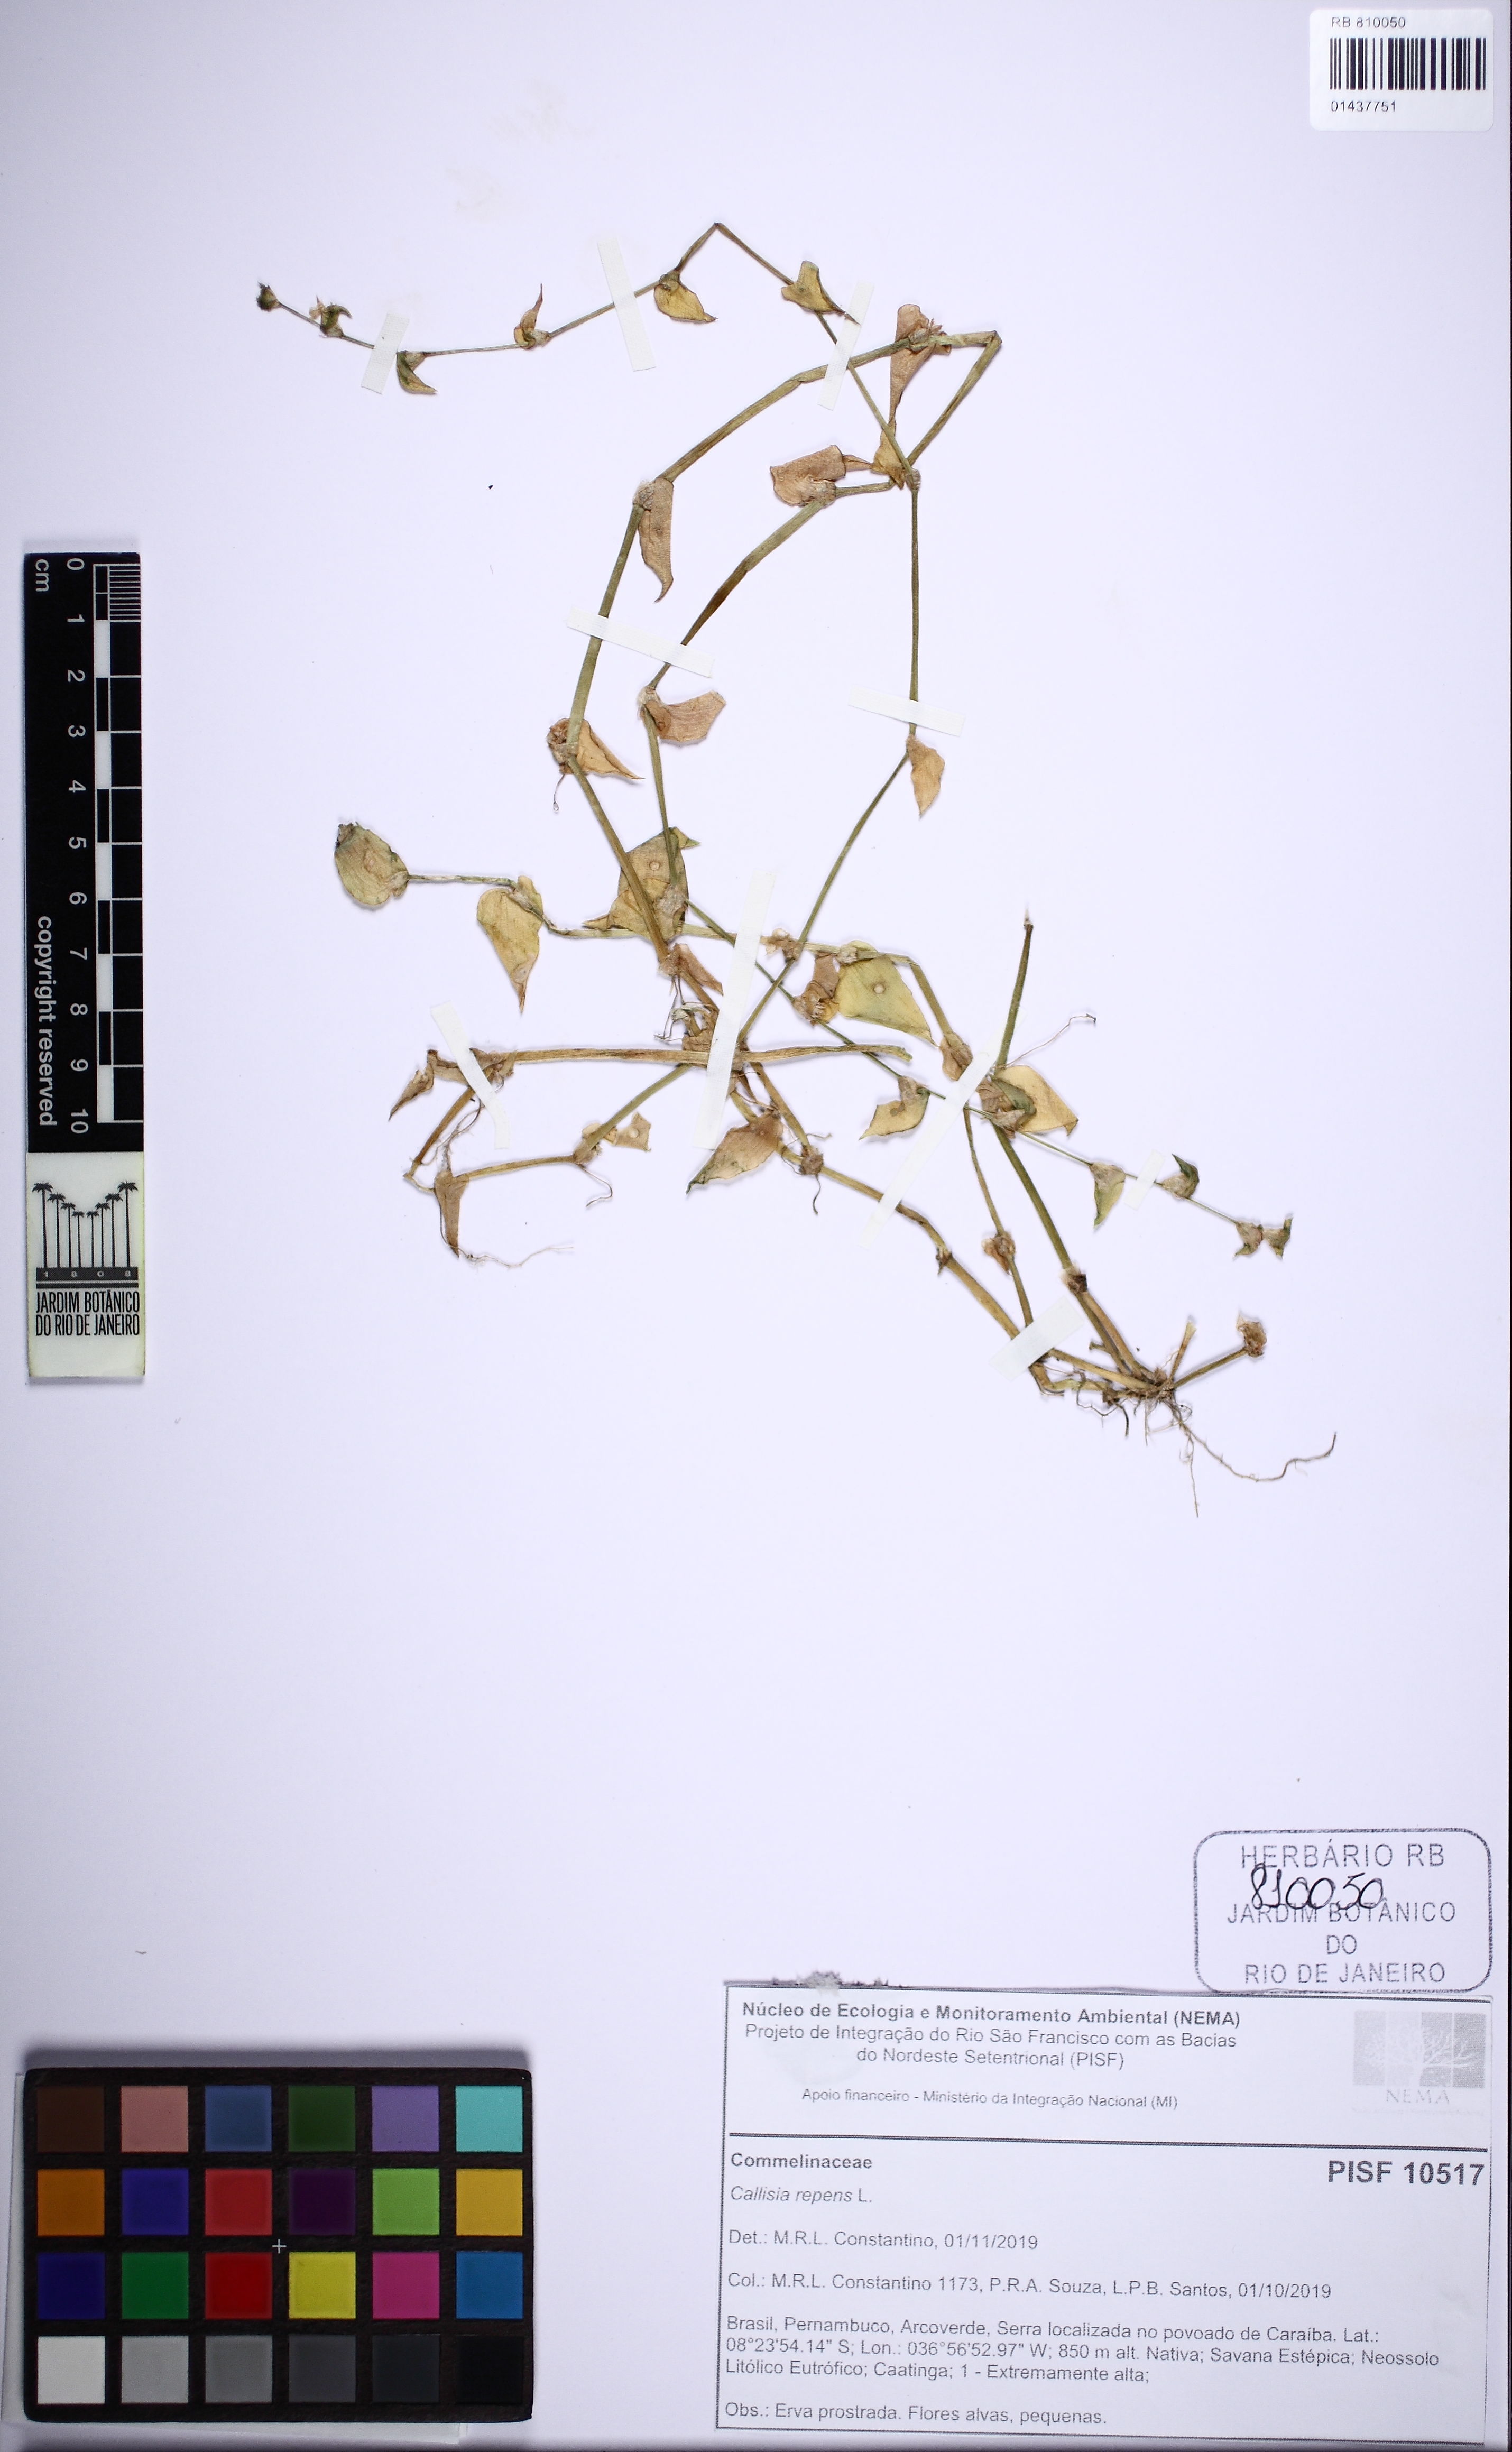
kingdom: Plantae
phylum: Tracheophyta
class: Liliopsida
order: Commelinales
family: Commelinaceae
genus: Callisia
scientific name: Callisia repens
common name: Creeping inchplant
